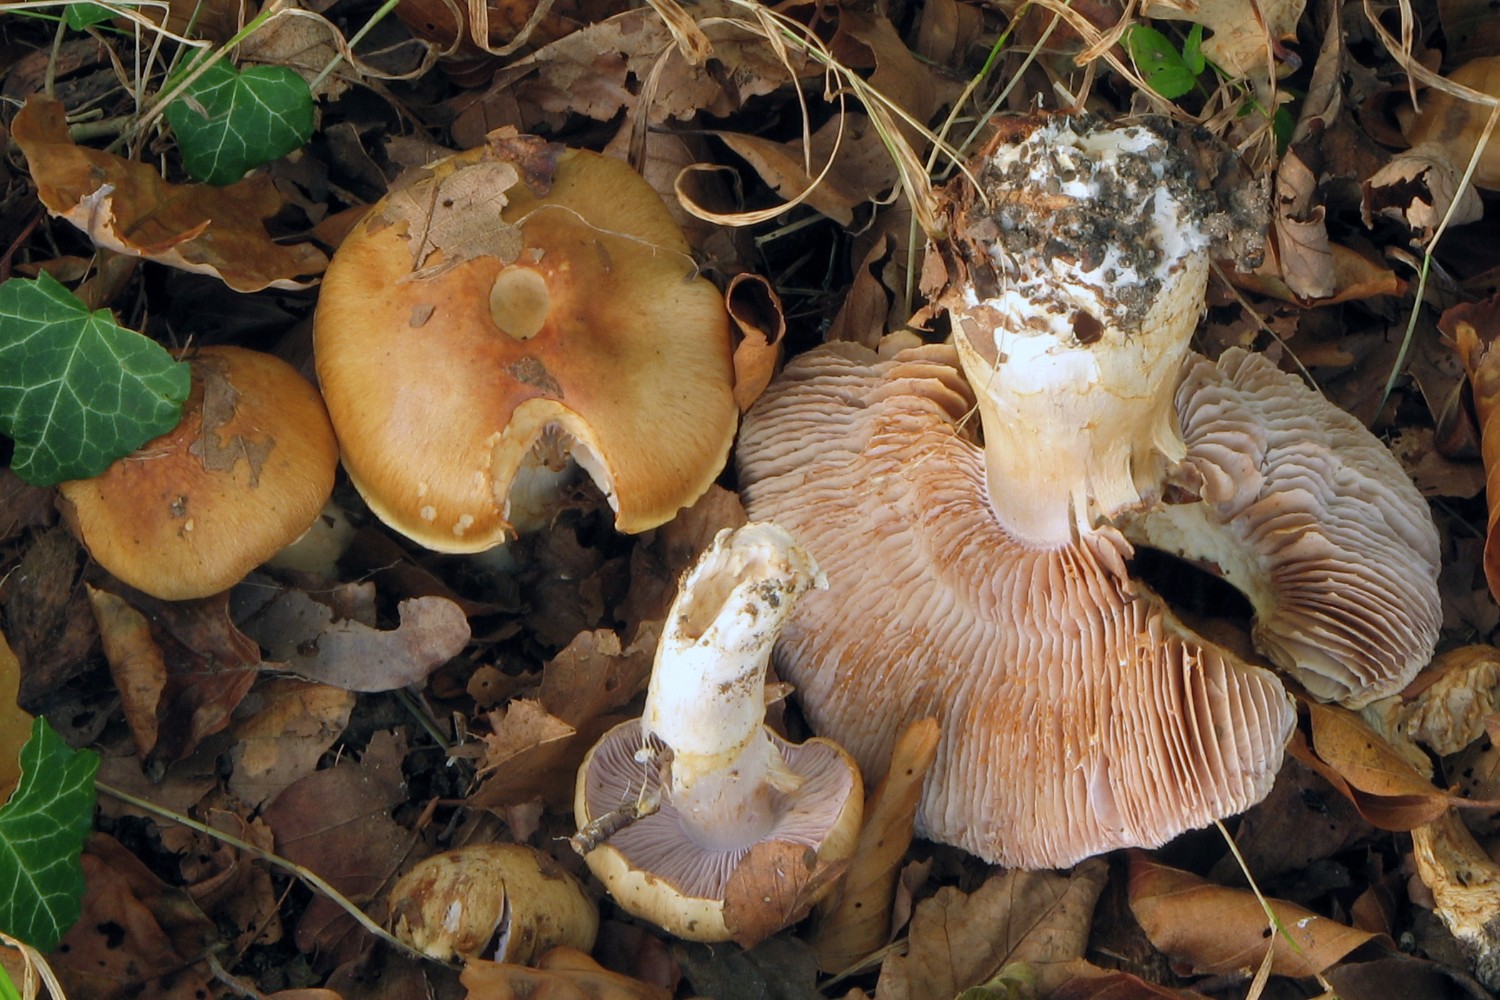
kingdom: Fungi
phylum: Basidiomycota
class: Agaricomycetes
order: Agaricales
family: Cortinariaceae
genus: Phlegmacium
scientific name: Phlegmacium variiforme
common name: løvengs-slørhat
